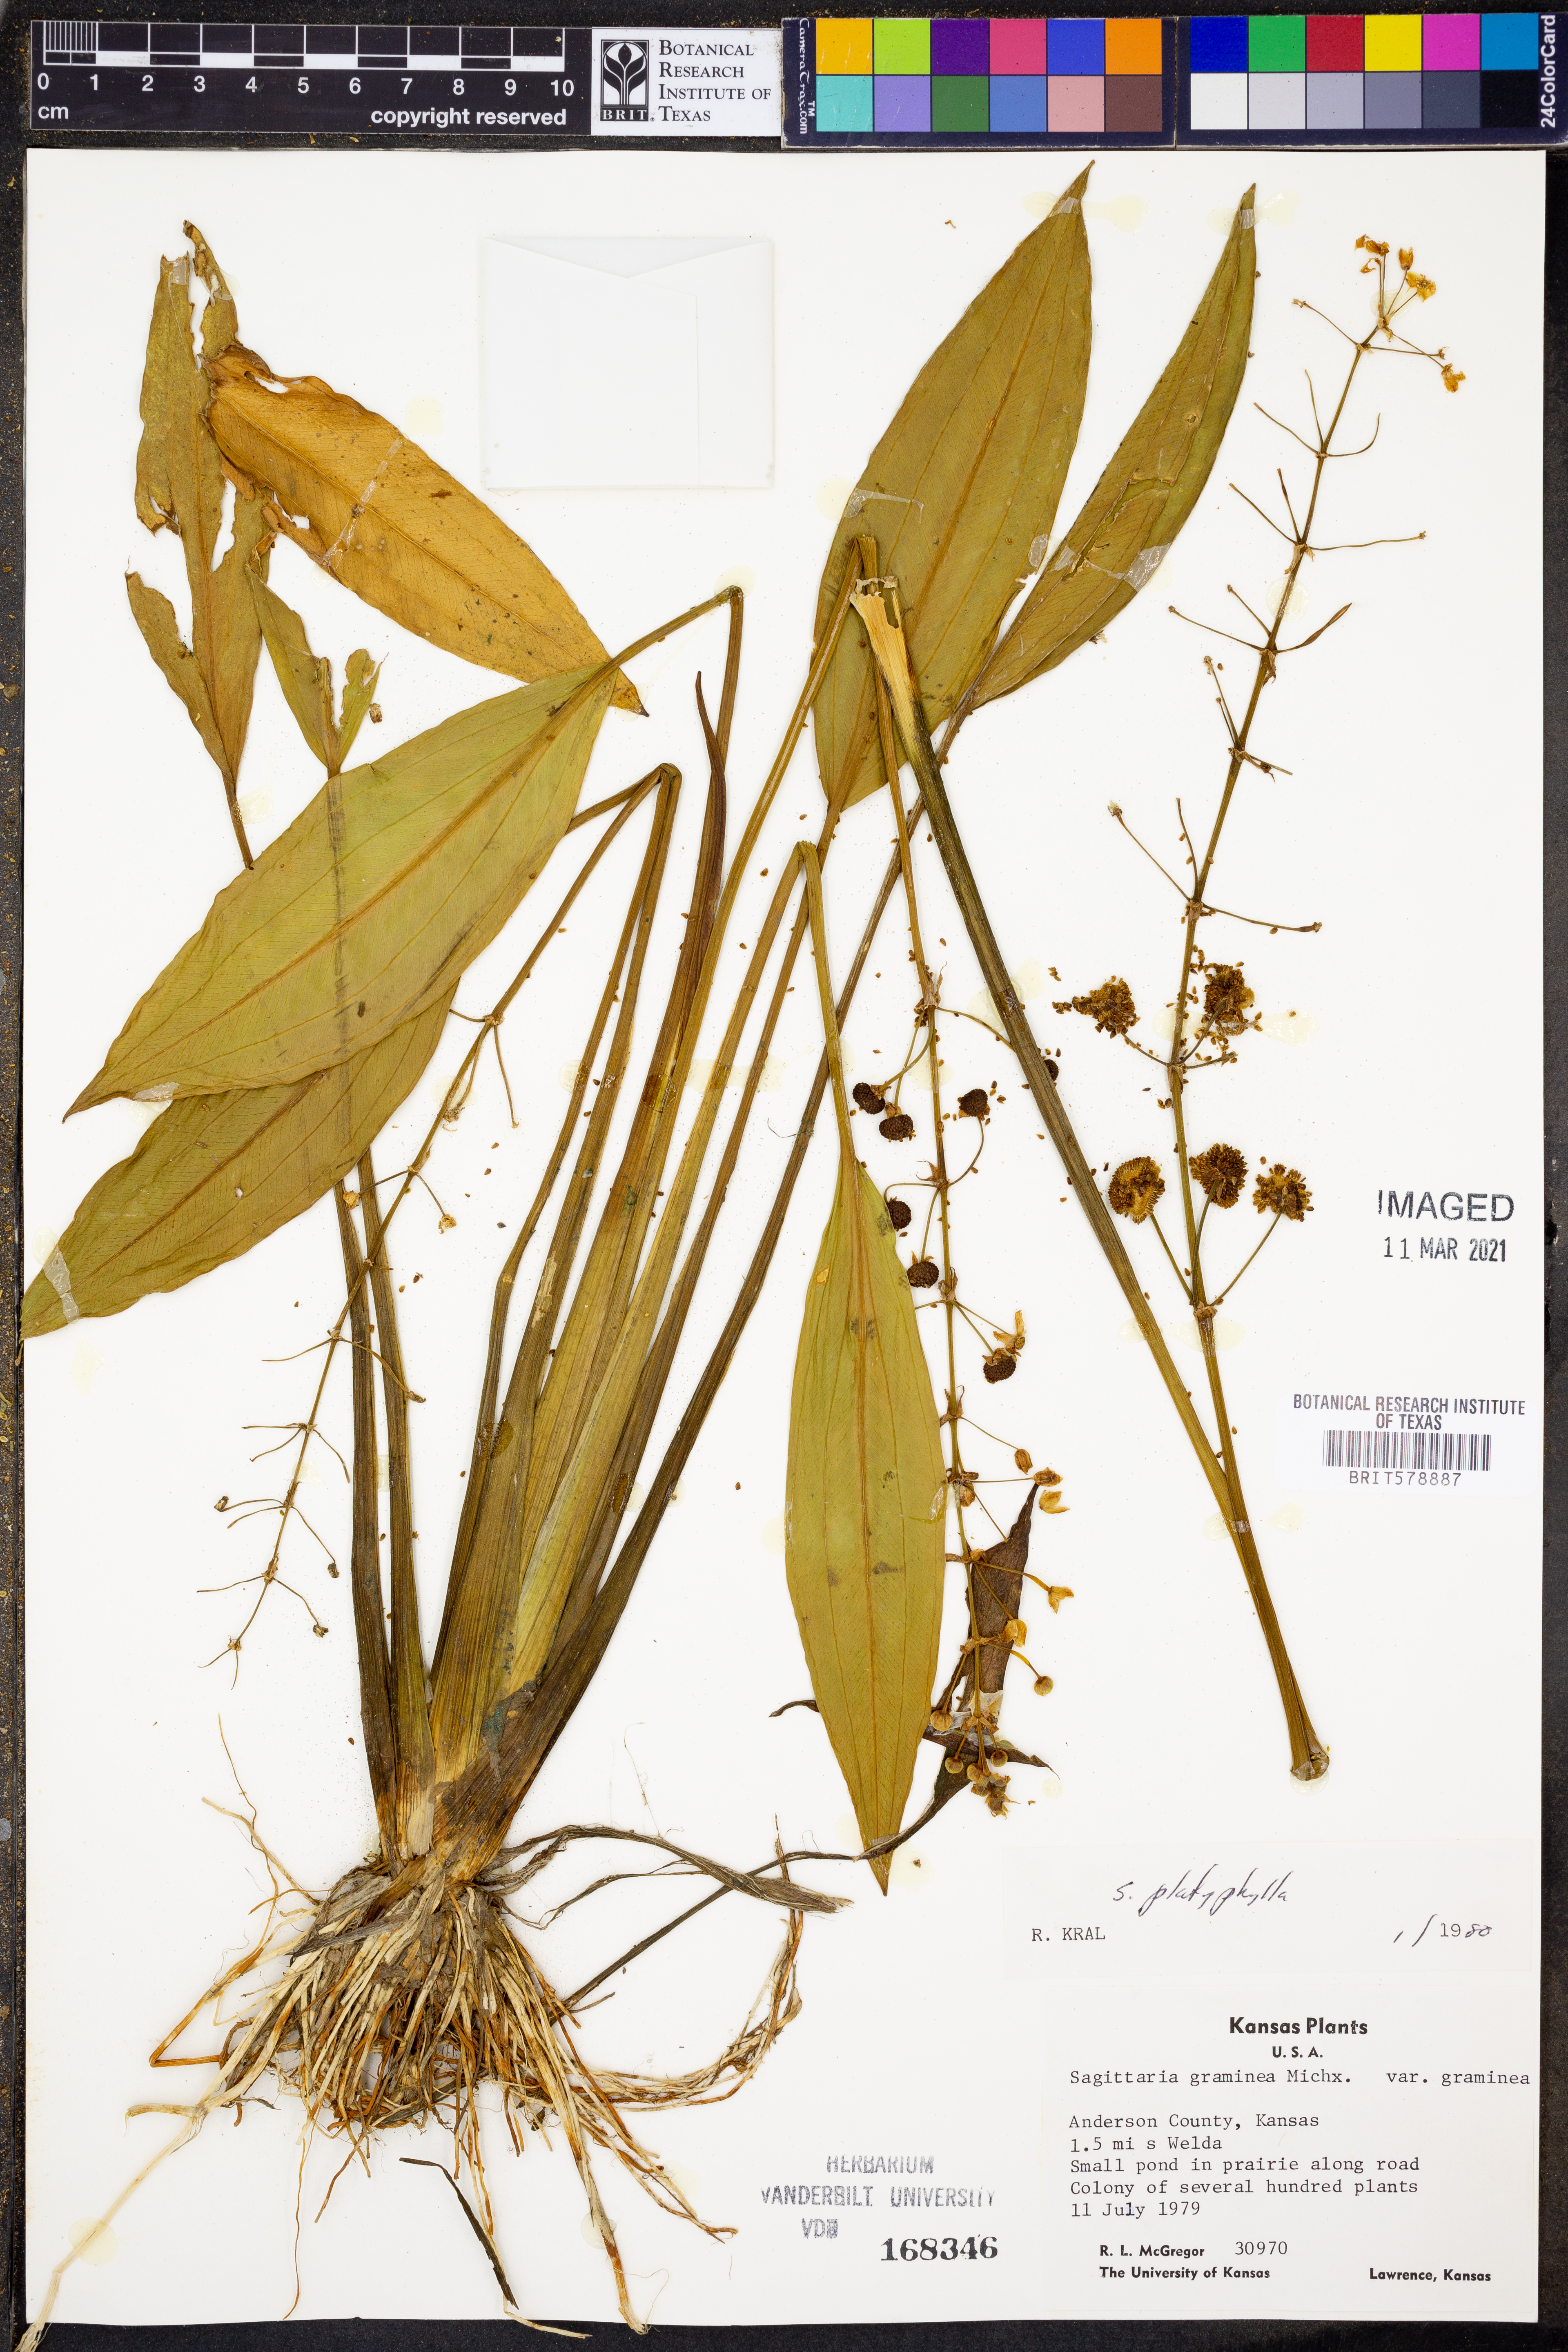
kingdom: Plantae
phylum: Tracheophyta
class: Liliopsida
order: Alismatales
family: Alismataceae
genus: Sagittaria
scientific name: Sagittaria platyphylla
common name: Broad-leaf arrowhead
